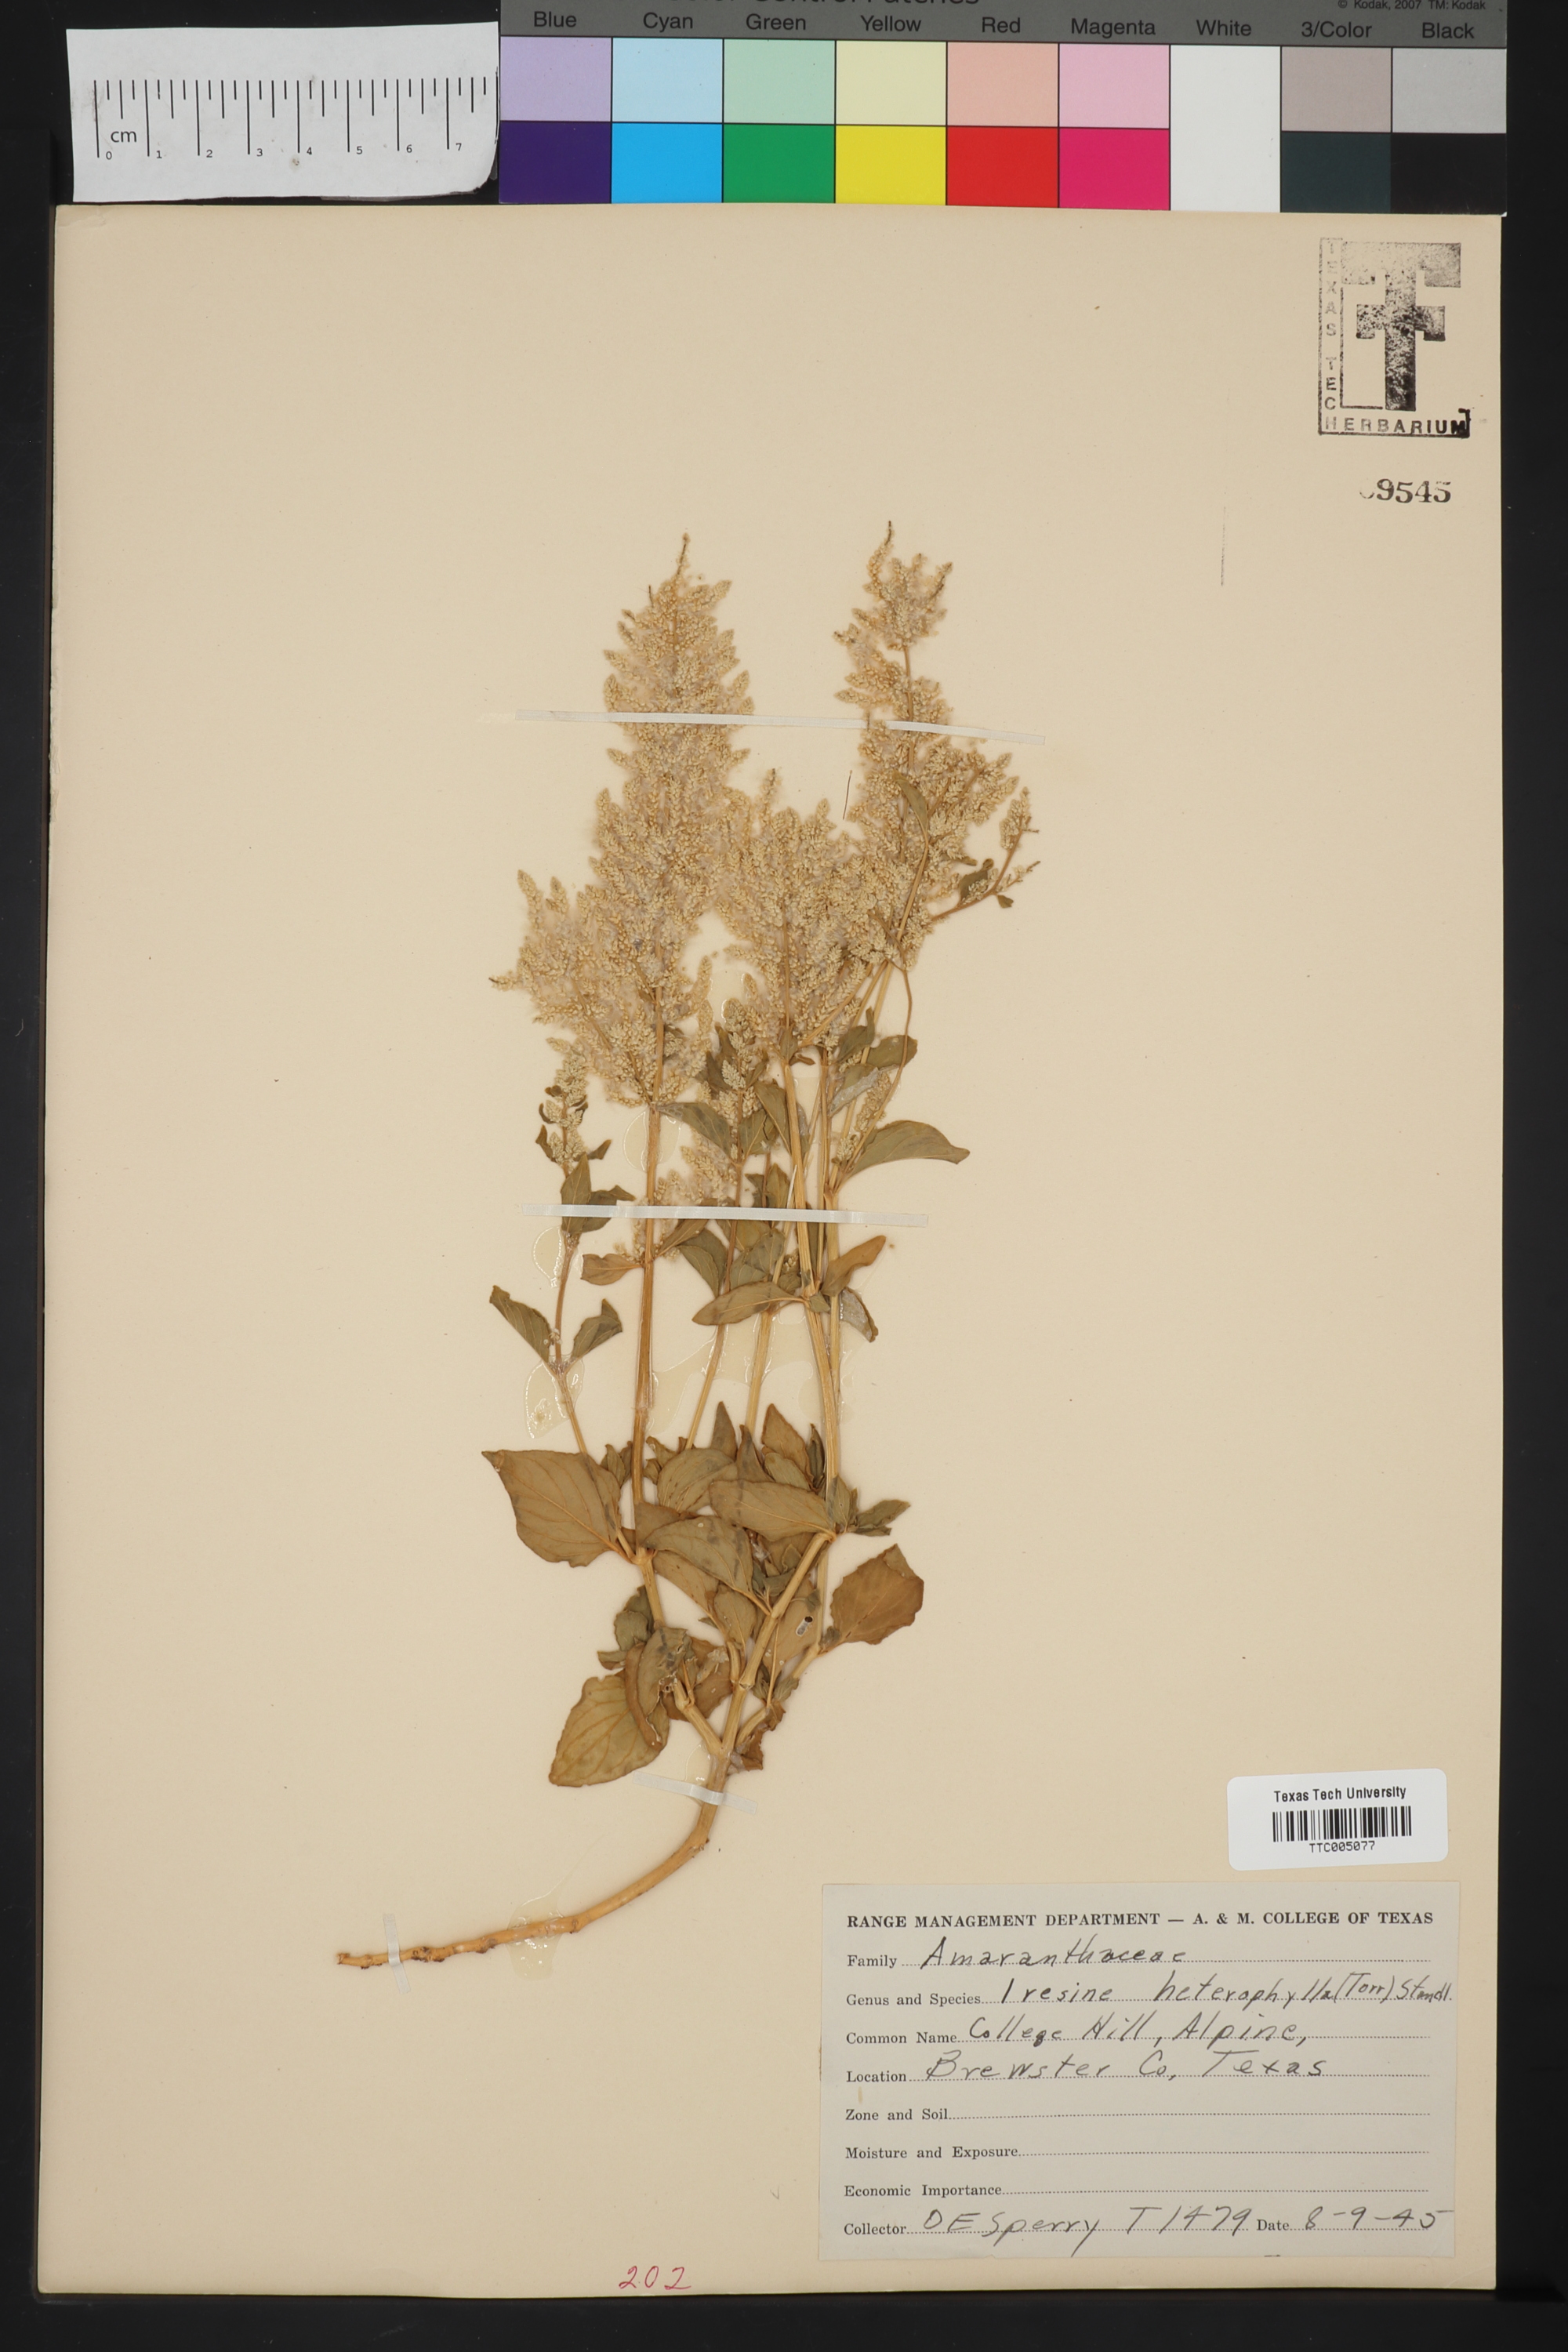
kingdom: Plantae
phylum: Tracheophyta
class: Magnoliopsida
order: Caryophyllales
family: Amaranthaceae
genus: Iresine
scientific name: Iresine heterophylla
